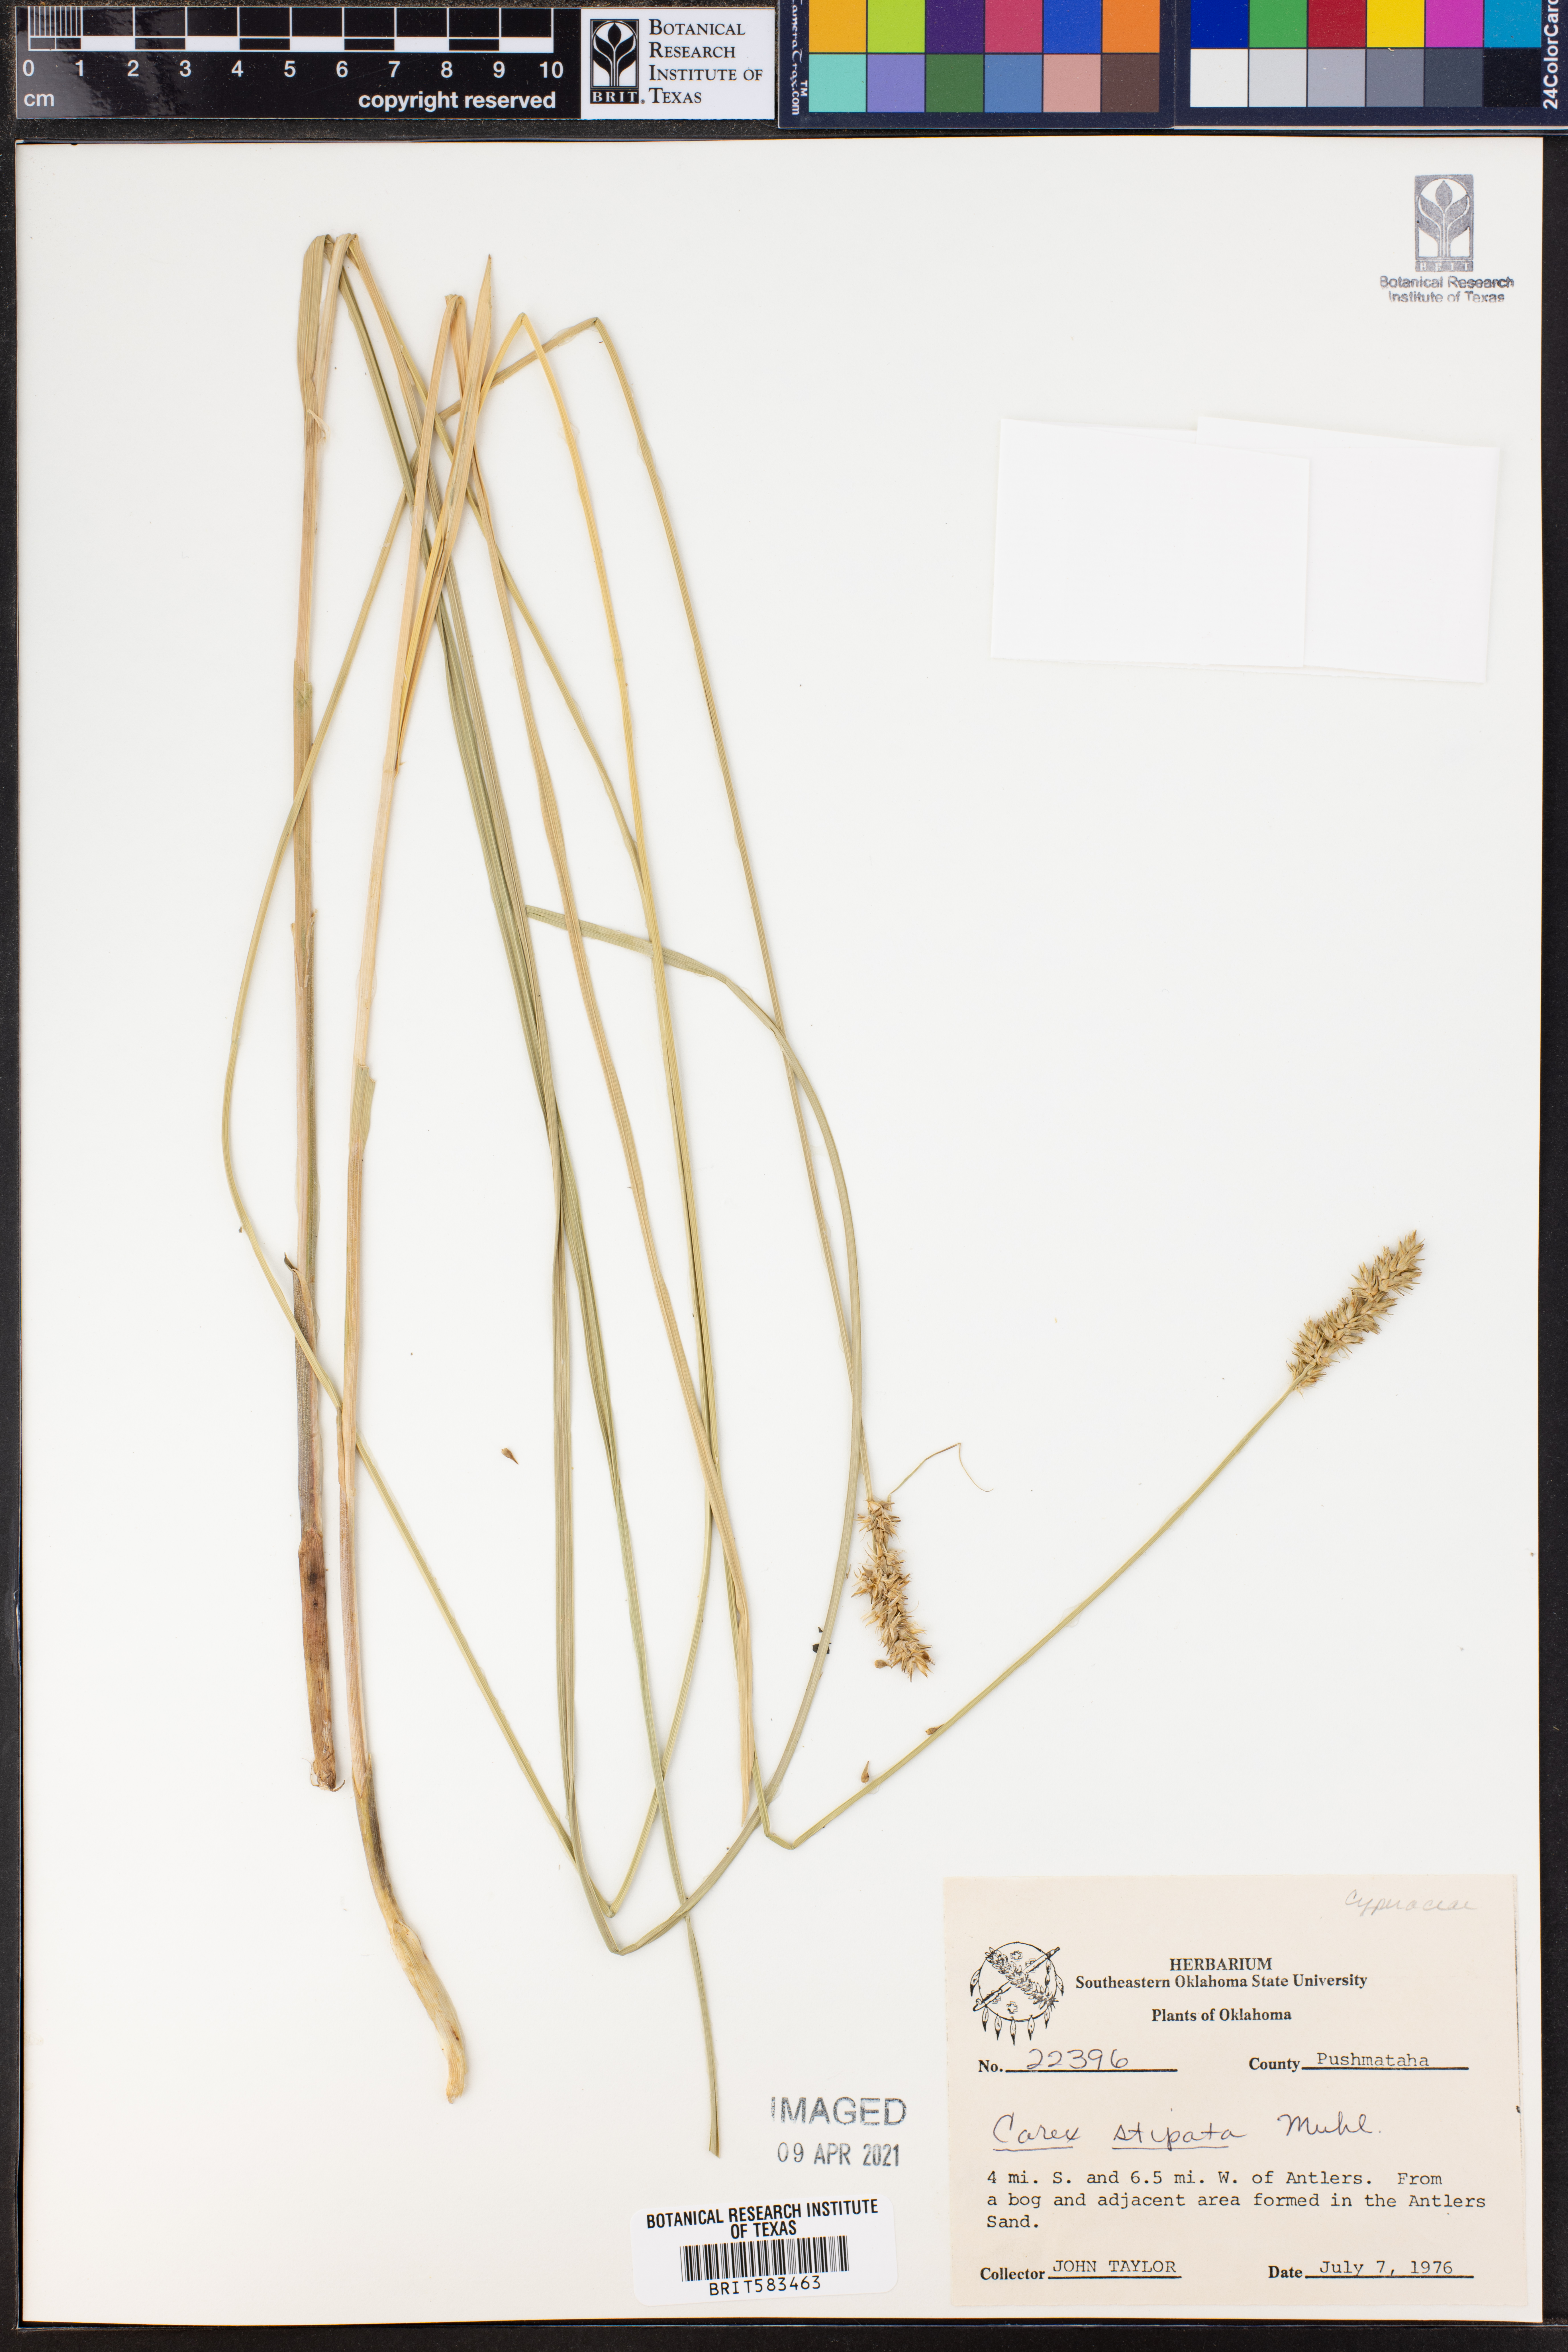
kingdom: Plantae
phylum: Tracheophyta
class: Liliopsida
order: Poales
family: Cyperaceae
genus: Carex
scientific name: Carex stipata
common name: Awl-fruited sedge
